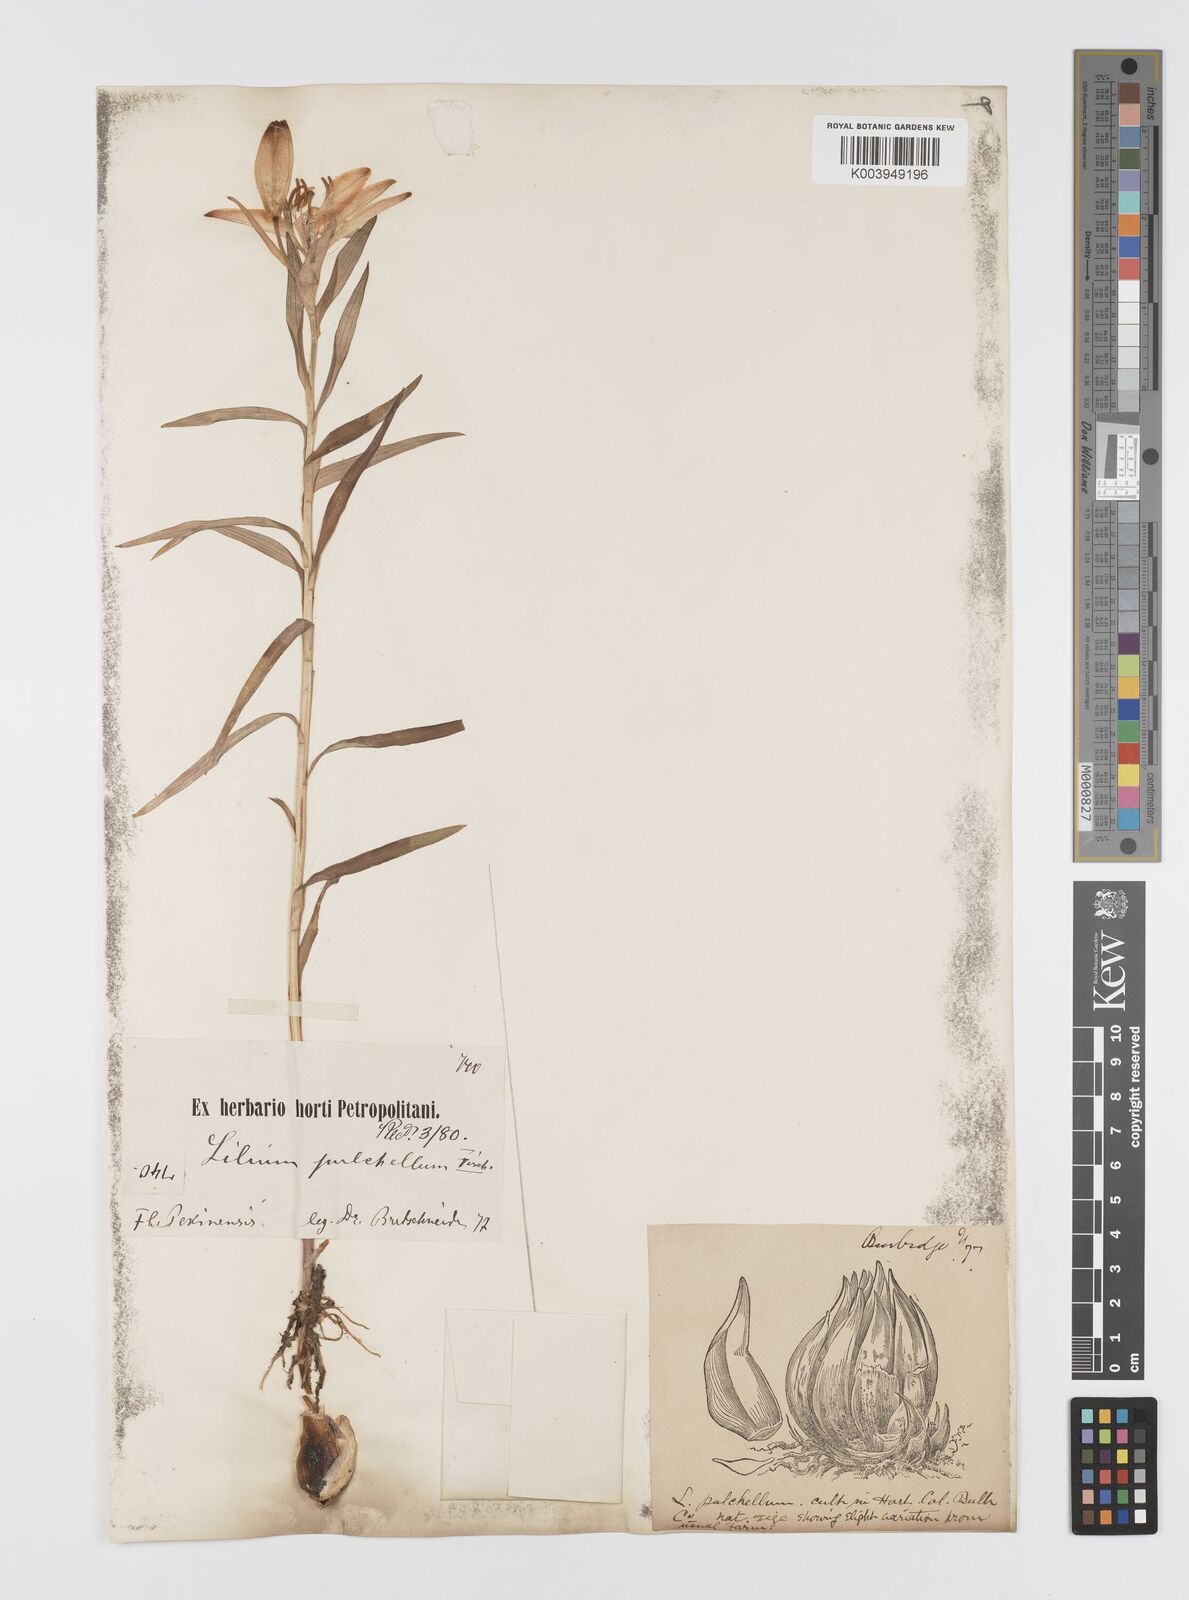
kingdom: Plantae
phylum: Tracheophyta
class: Liliopsida
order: Liliales
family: Liliaceae
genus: Lilium
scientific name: Lilium concolor
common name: Morning-star lily
